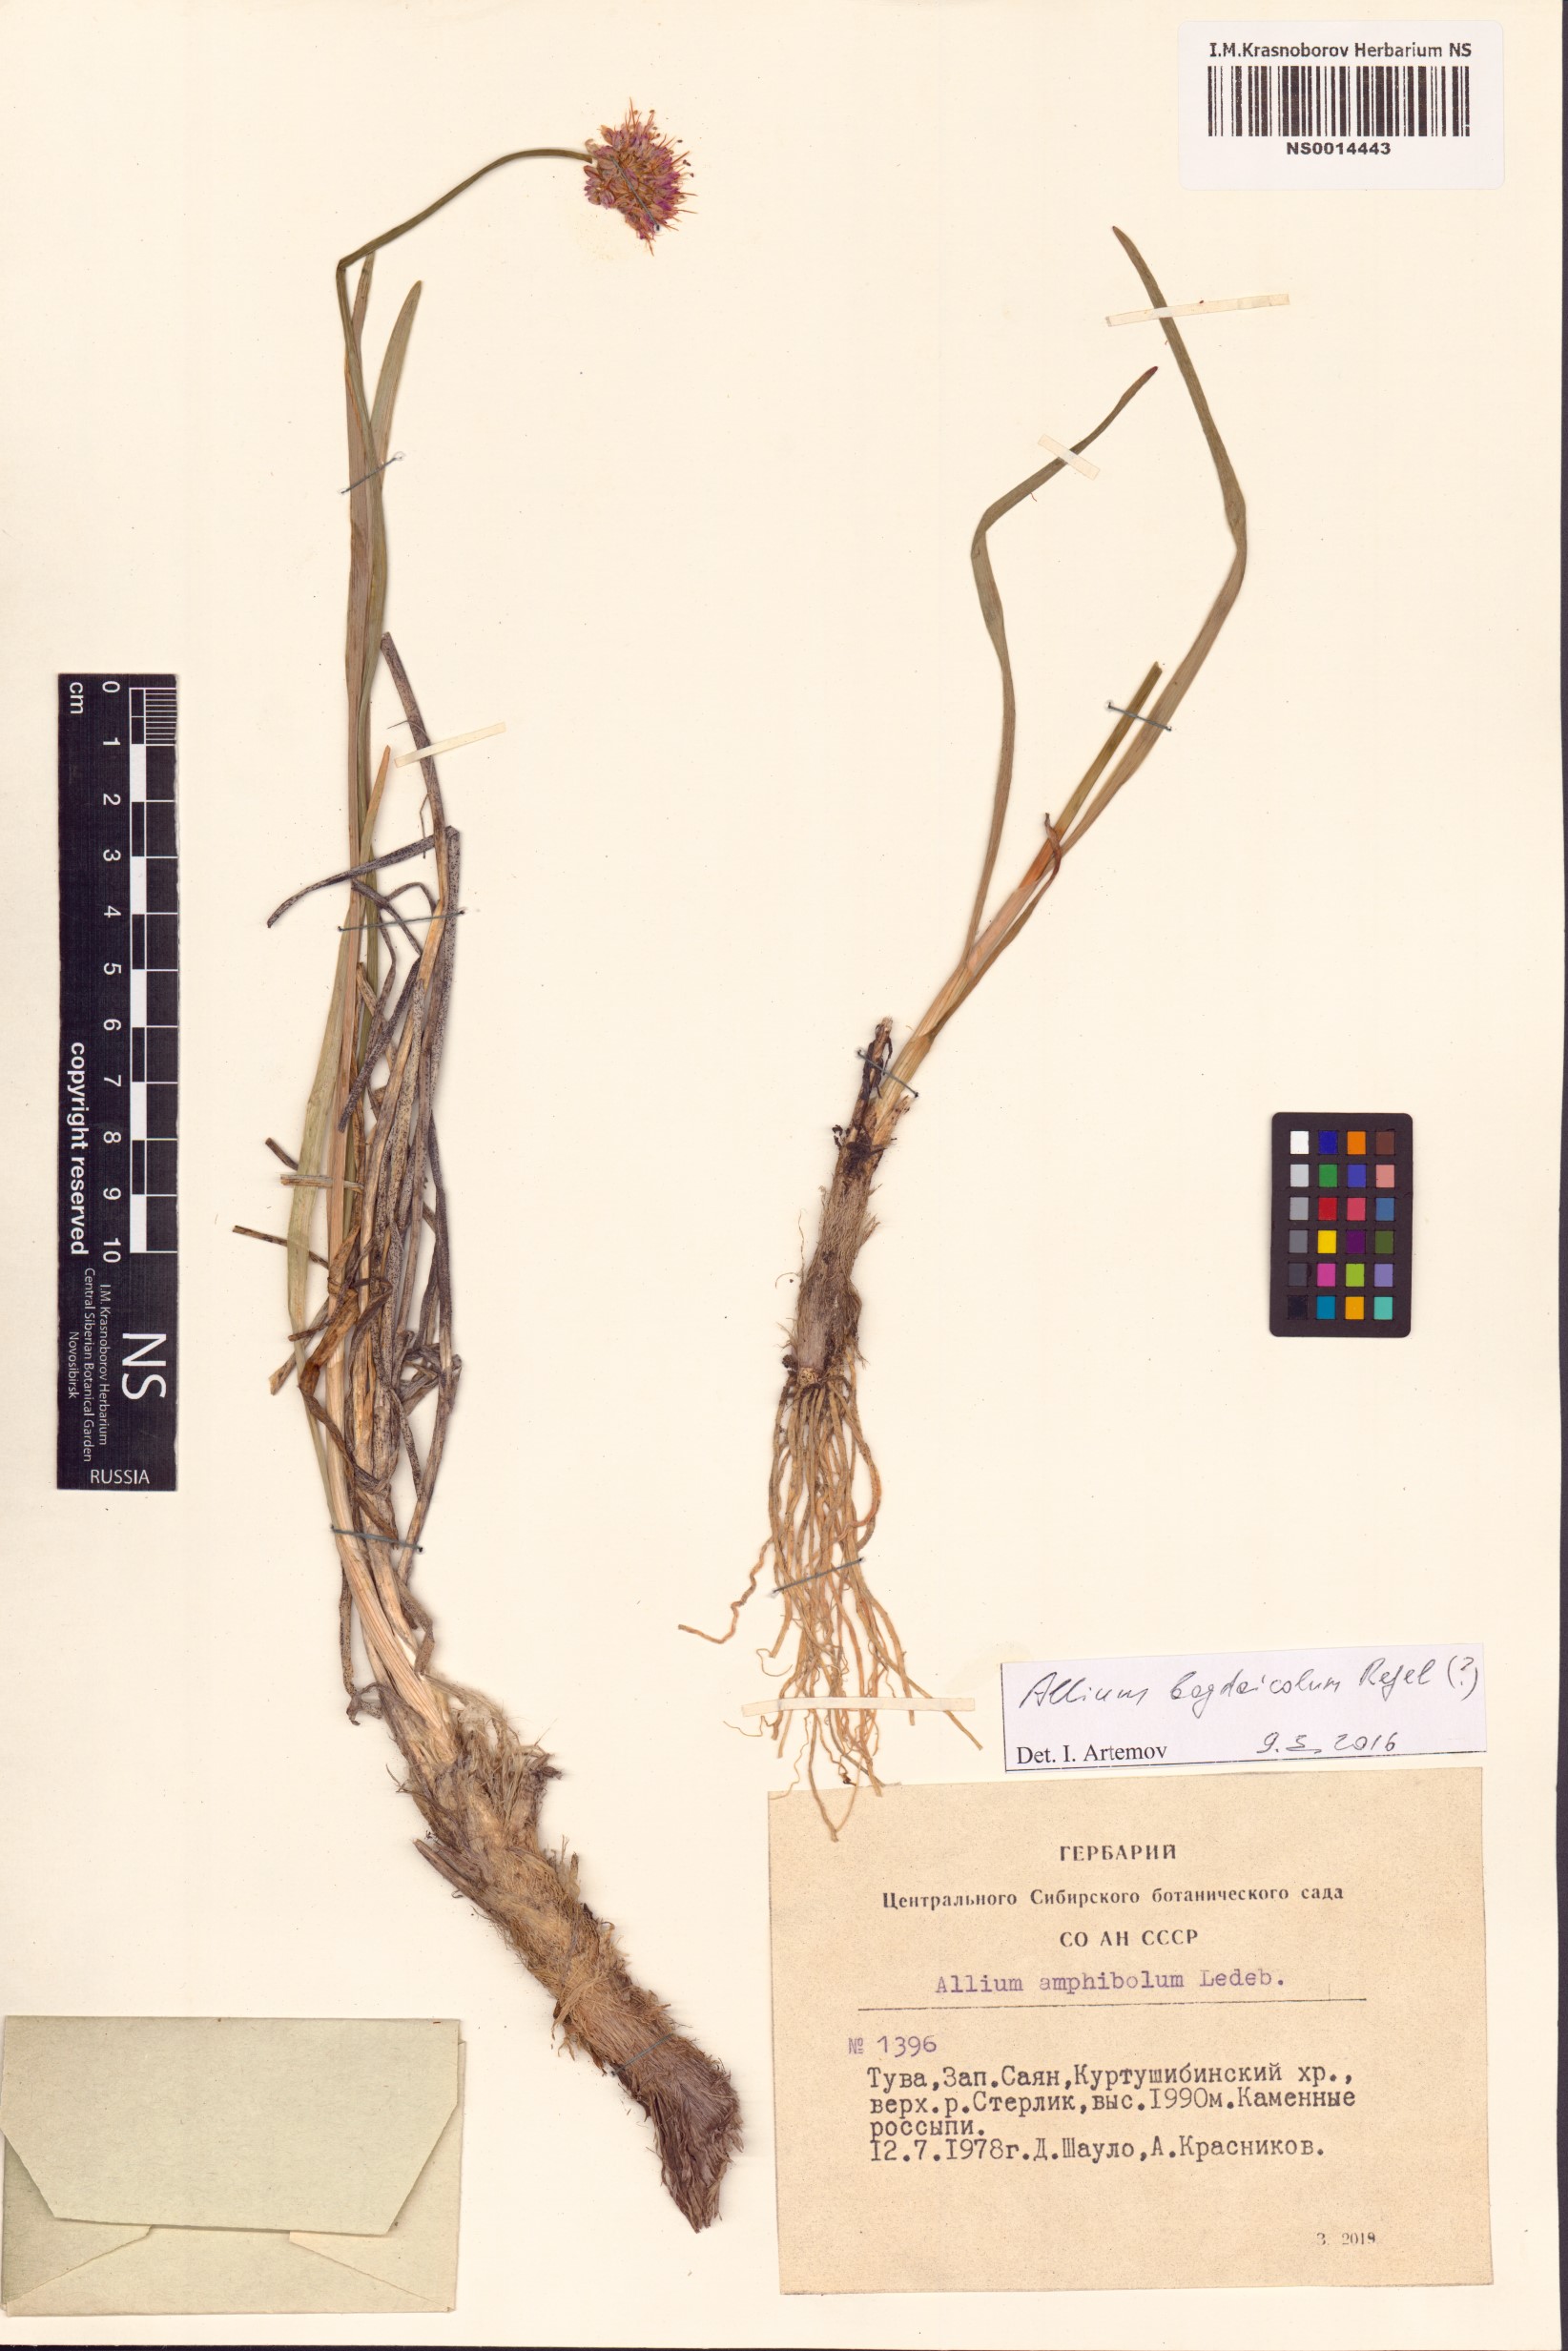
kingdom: Plantae
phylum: Tracheophyta
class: Liliopsida
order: Asparagales
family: Amaryllidaceae
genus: Allium
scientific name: Allium schrenkii
